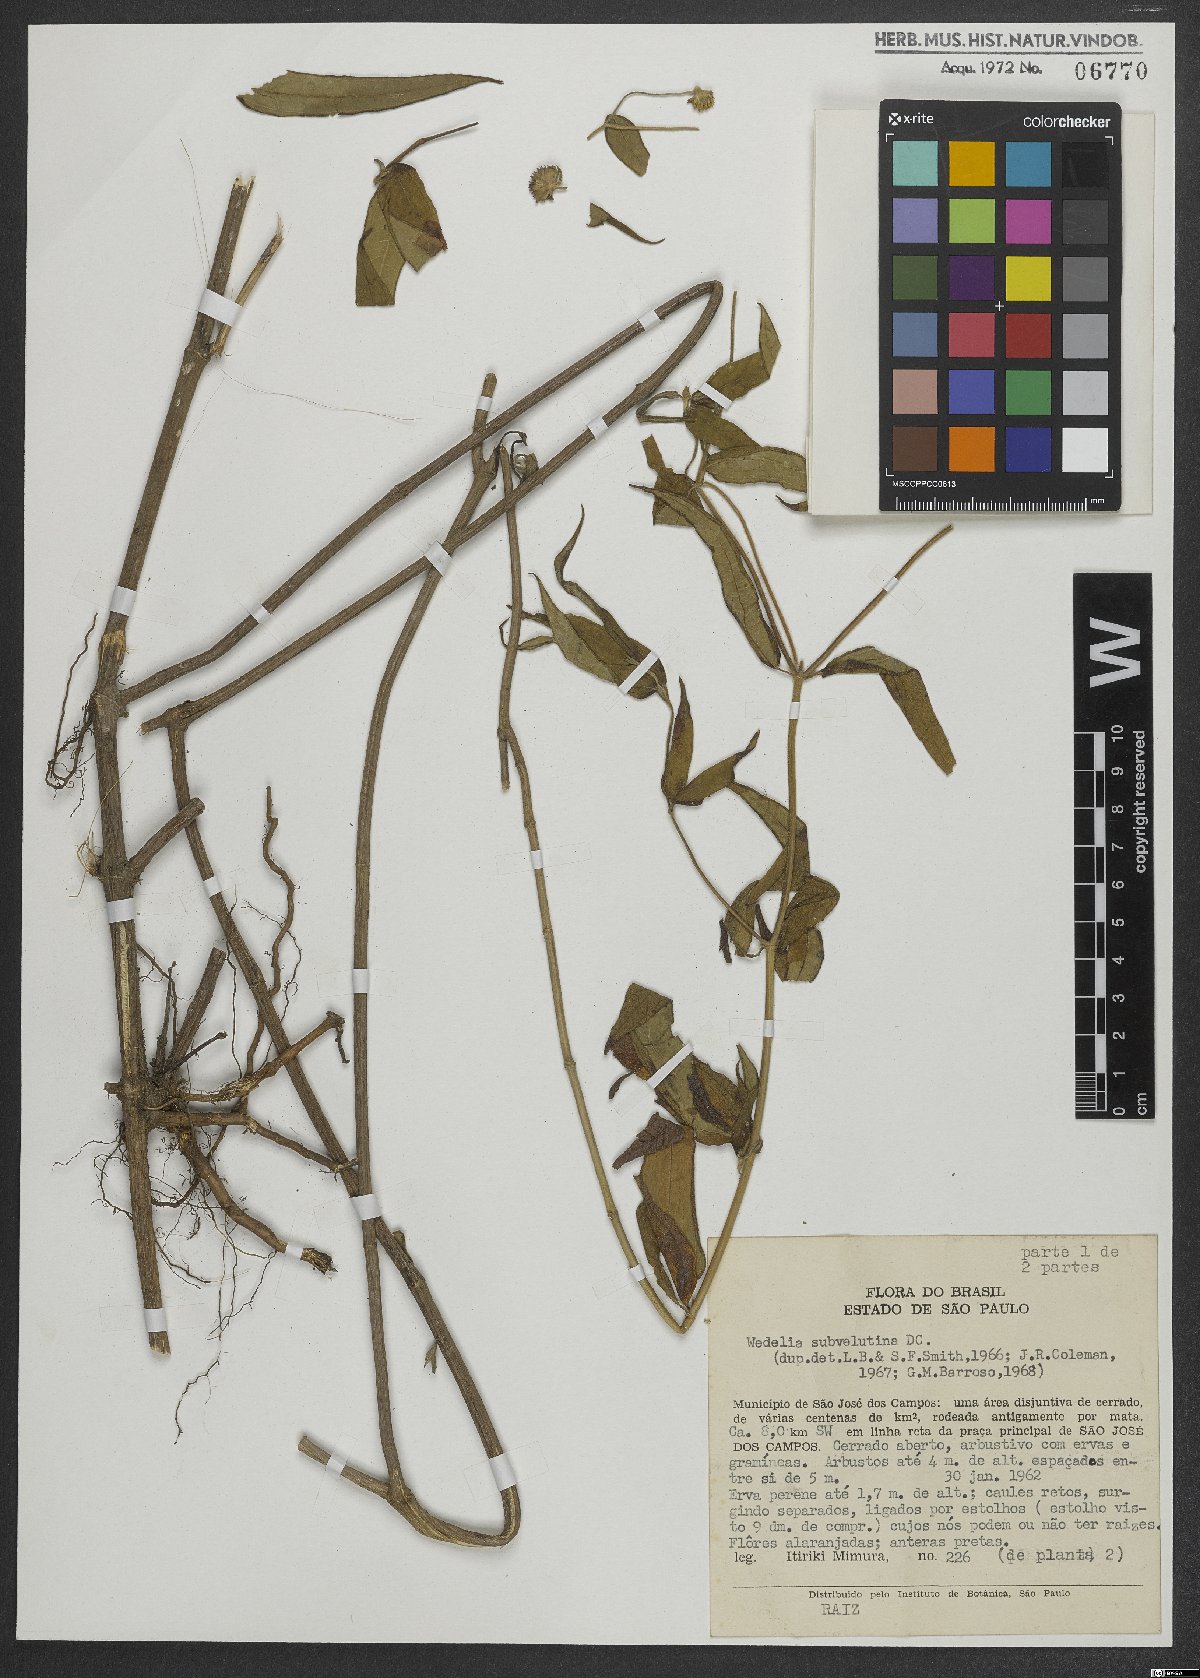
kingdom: Plantae
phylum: Tracheophyta
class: Magnoliopsida
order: Asterales
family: Asteraceae
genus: Wedelia
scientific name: Wedelia subvelutina
